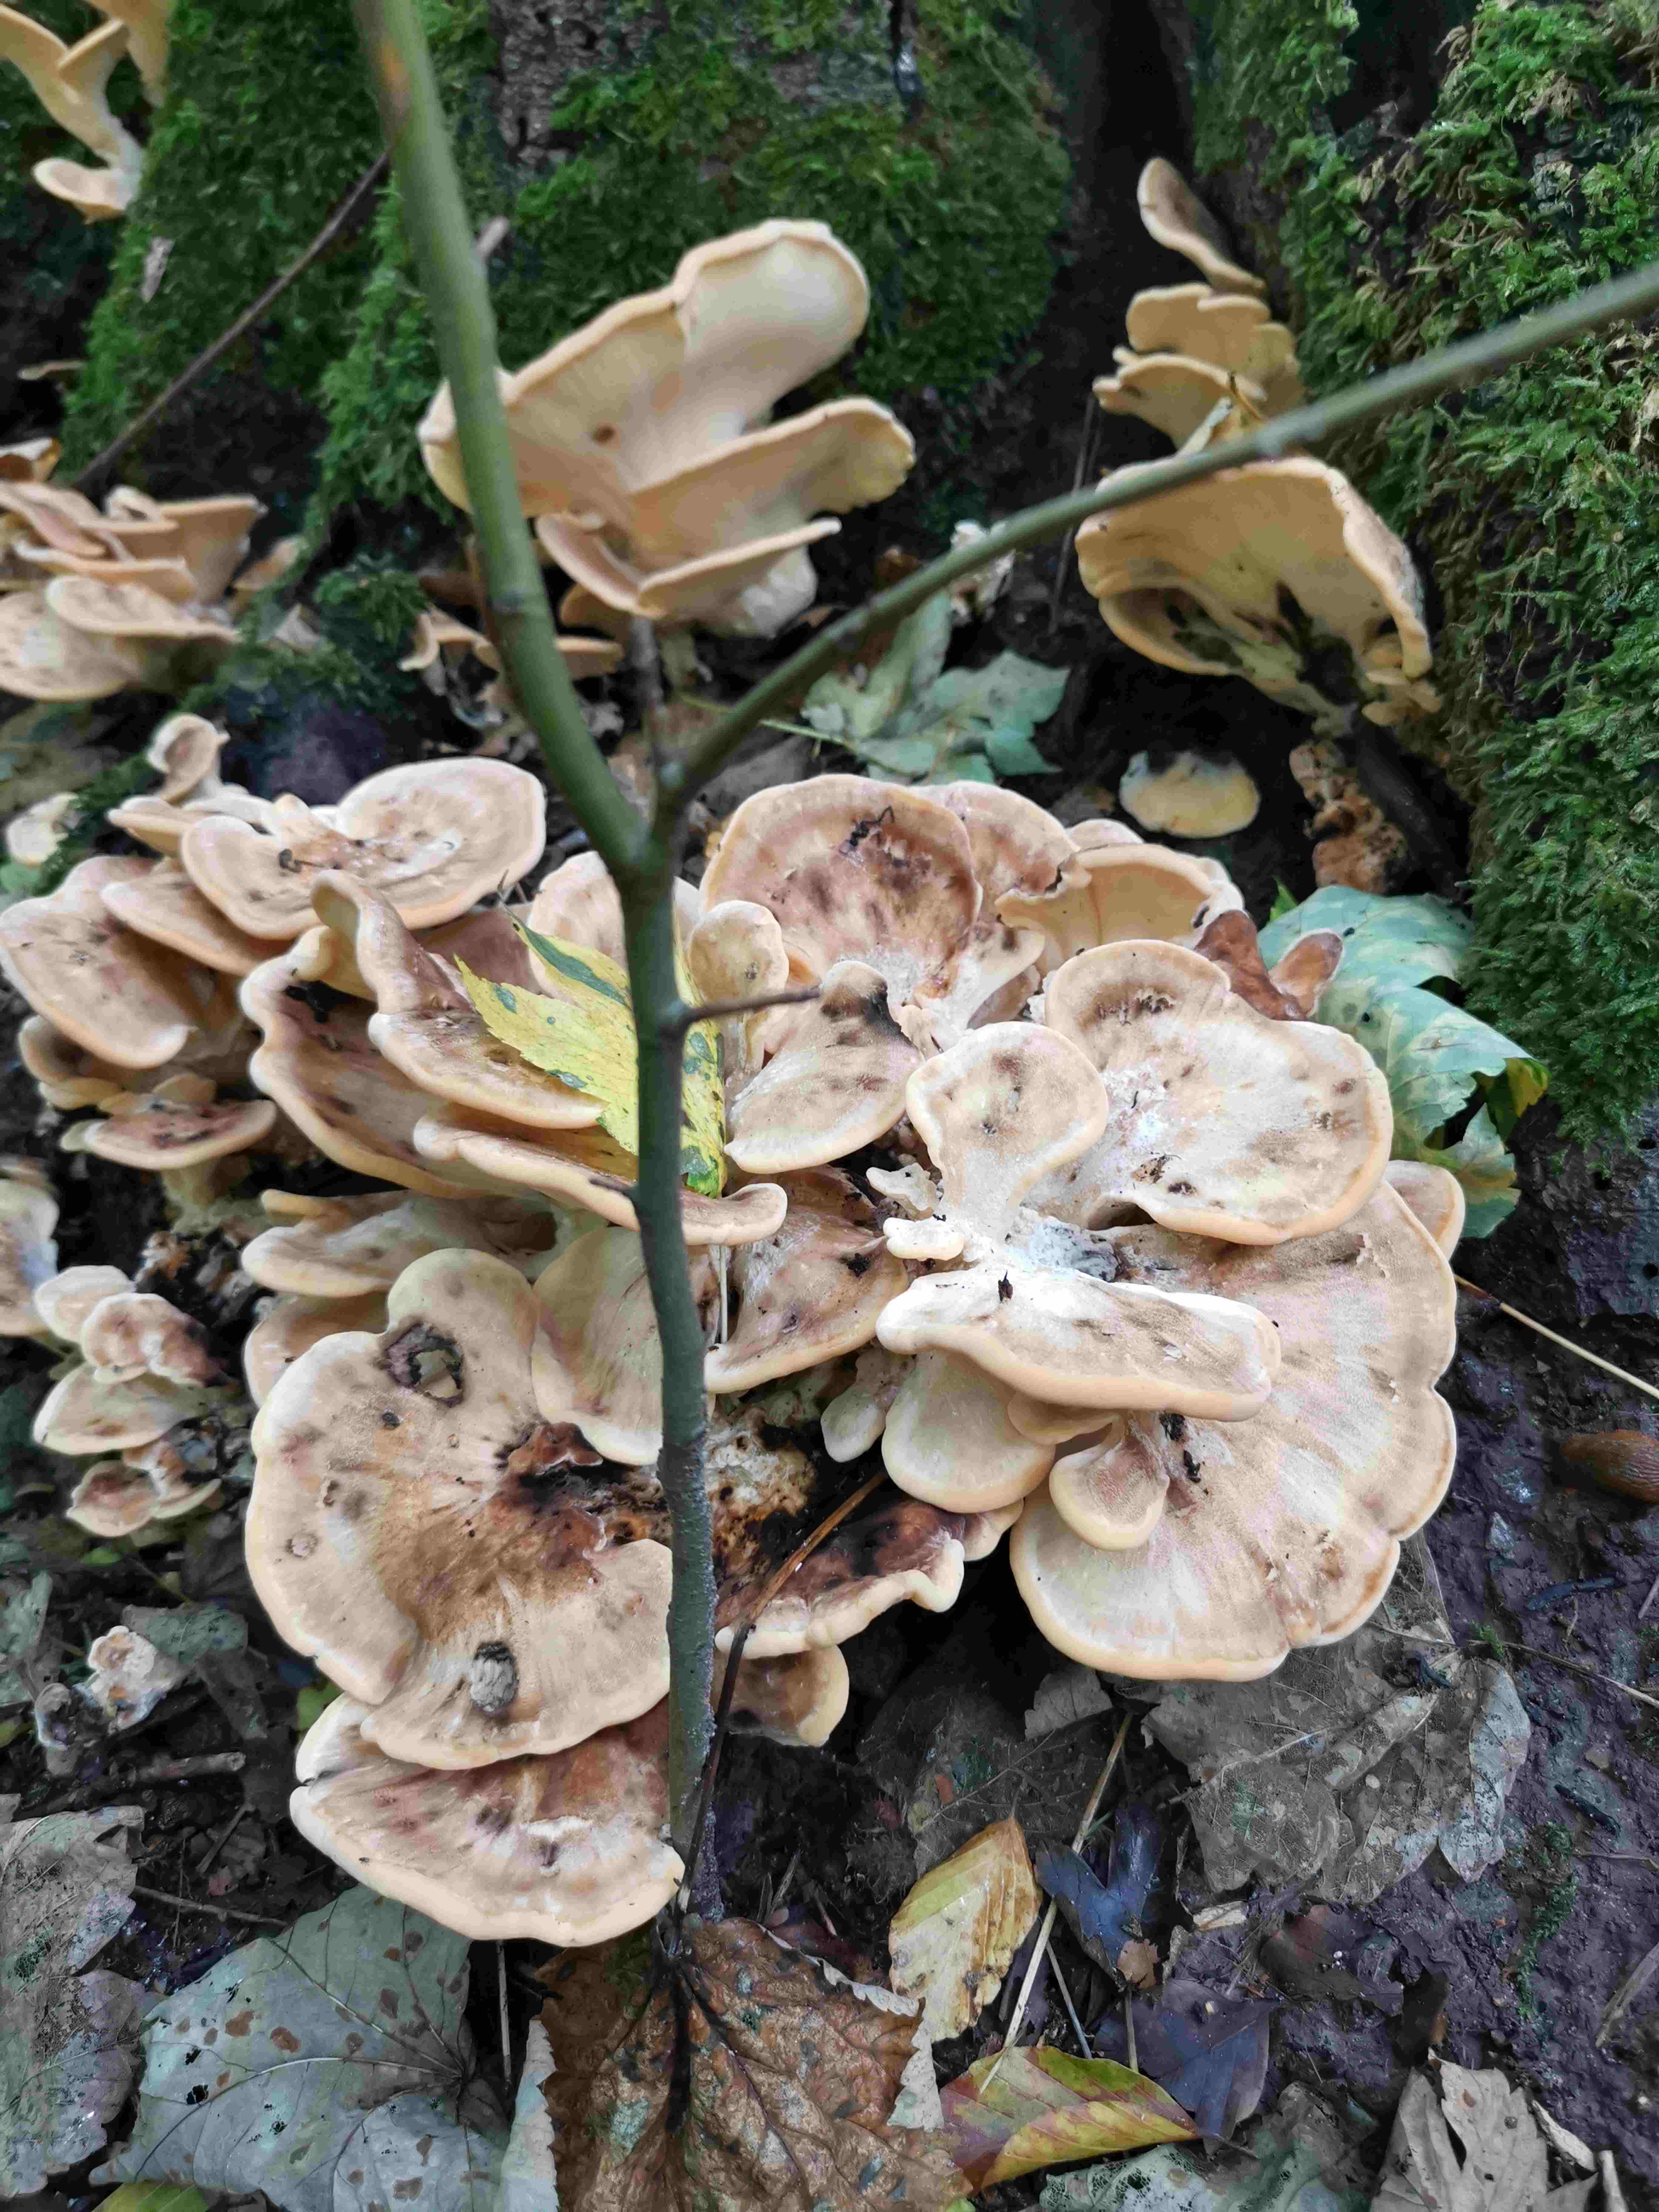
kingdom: Fungi
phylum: Basidiomycota
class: Agaricomycetes
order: Polyporales
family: Meripilaceae
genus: Meripilus
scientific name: Meripilus giganteus
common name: kæmpeporesvamp
